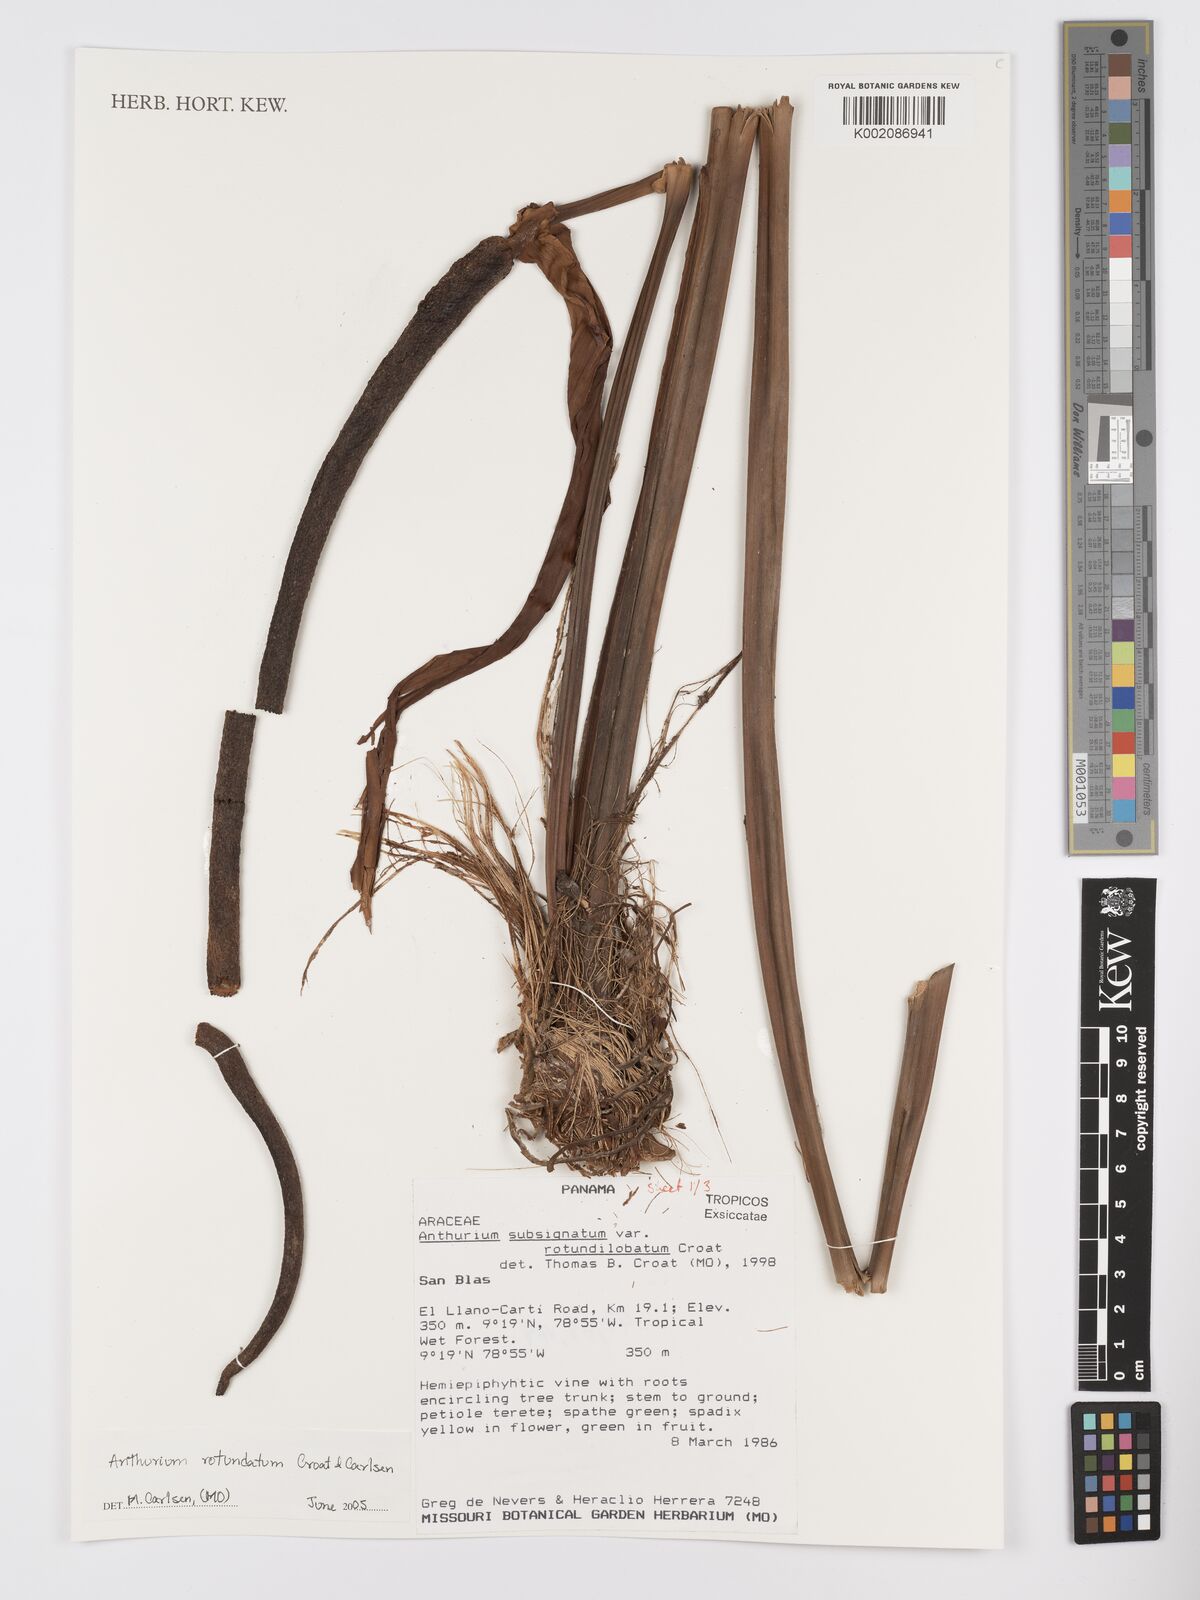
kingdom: Plantae
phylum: Tracheophyta
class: Liliopsida
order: Alismatales
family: Araceae
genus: Anthurium
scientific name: Anthurium rotundatum
